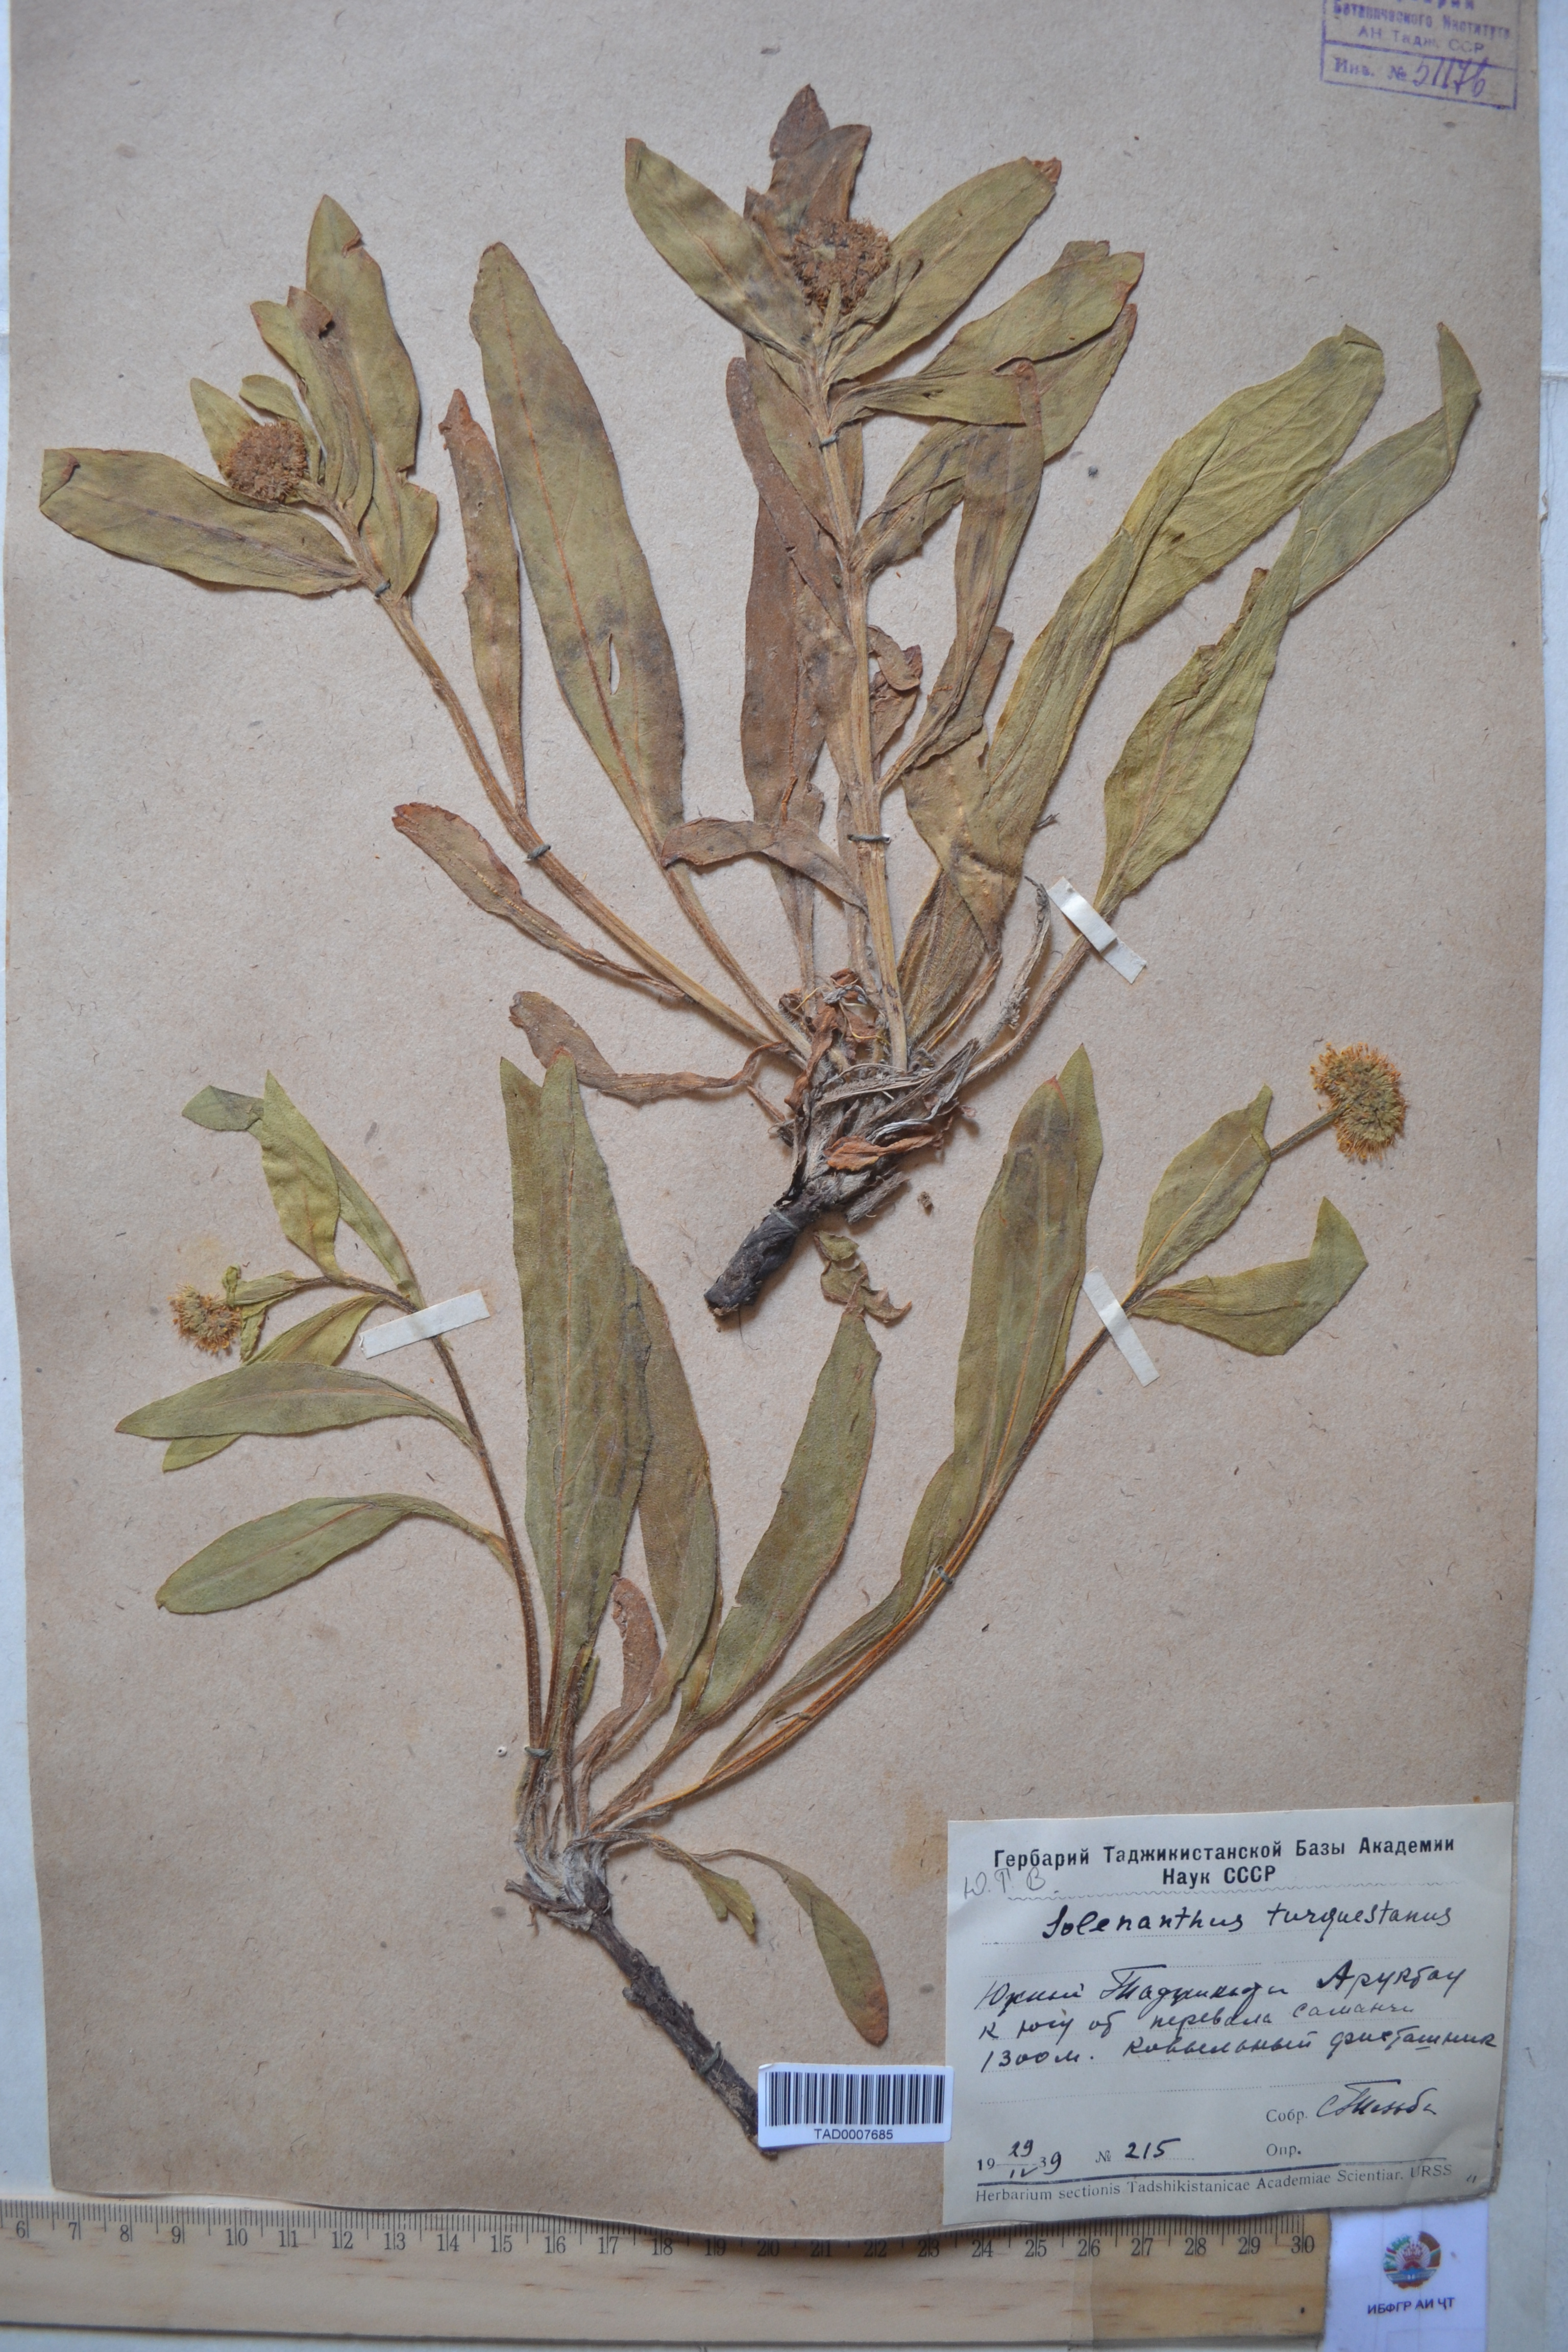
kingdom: Plantae
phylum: Tracheophyta
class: Magnoliopsida
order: Boraginales
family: Boraginaceae
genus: Solenanthus
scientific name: Solenanthus turkestanicus
